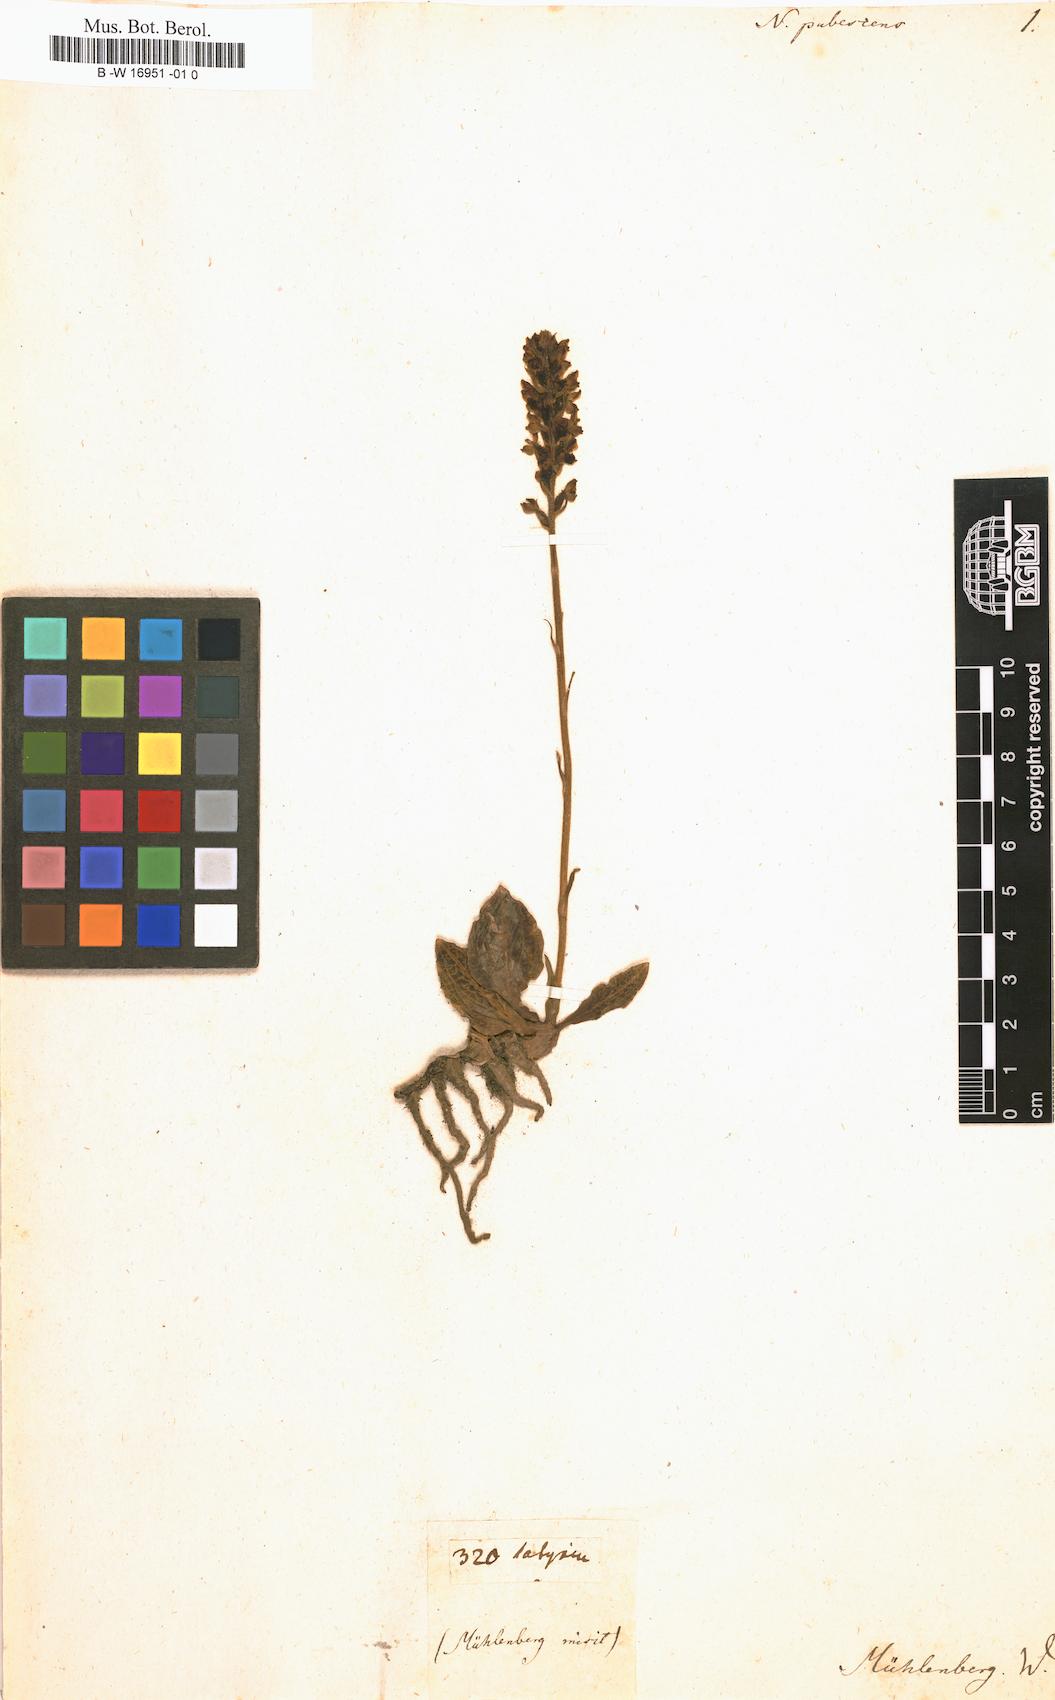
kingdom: Plantae
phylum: Tracheophyta
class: Liliopsida
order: Asparagales
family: Orchidaceae
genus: Goodyera
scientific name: Goodyera pubescens
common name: Downy rattlesnake-plantain
